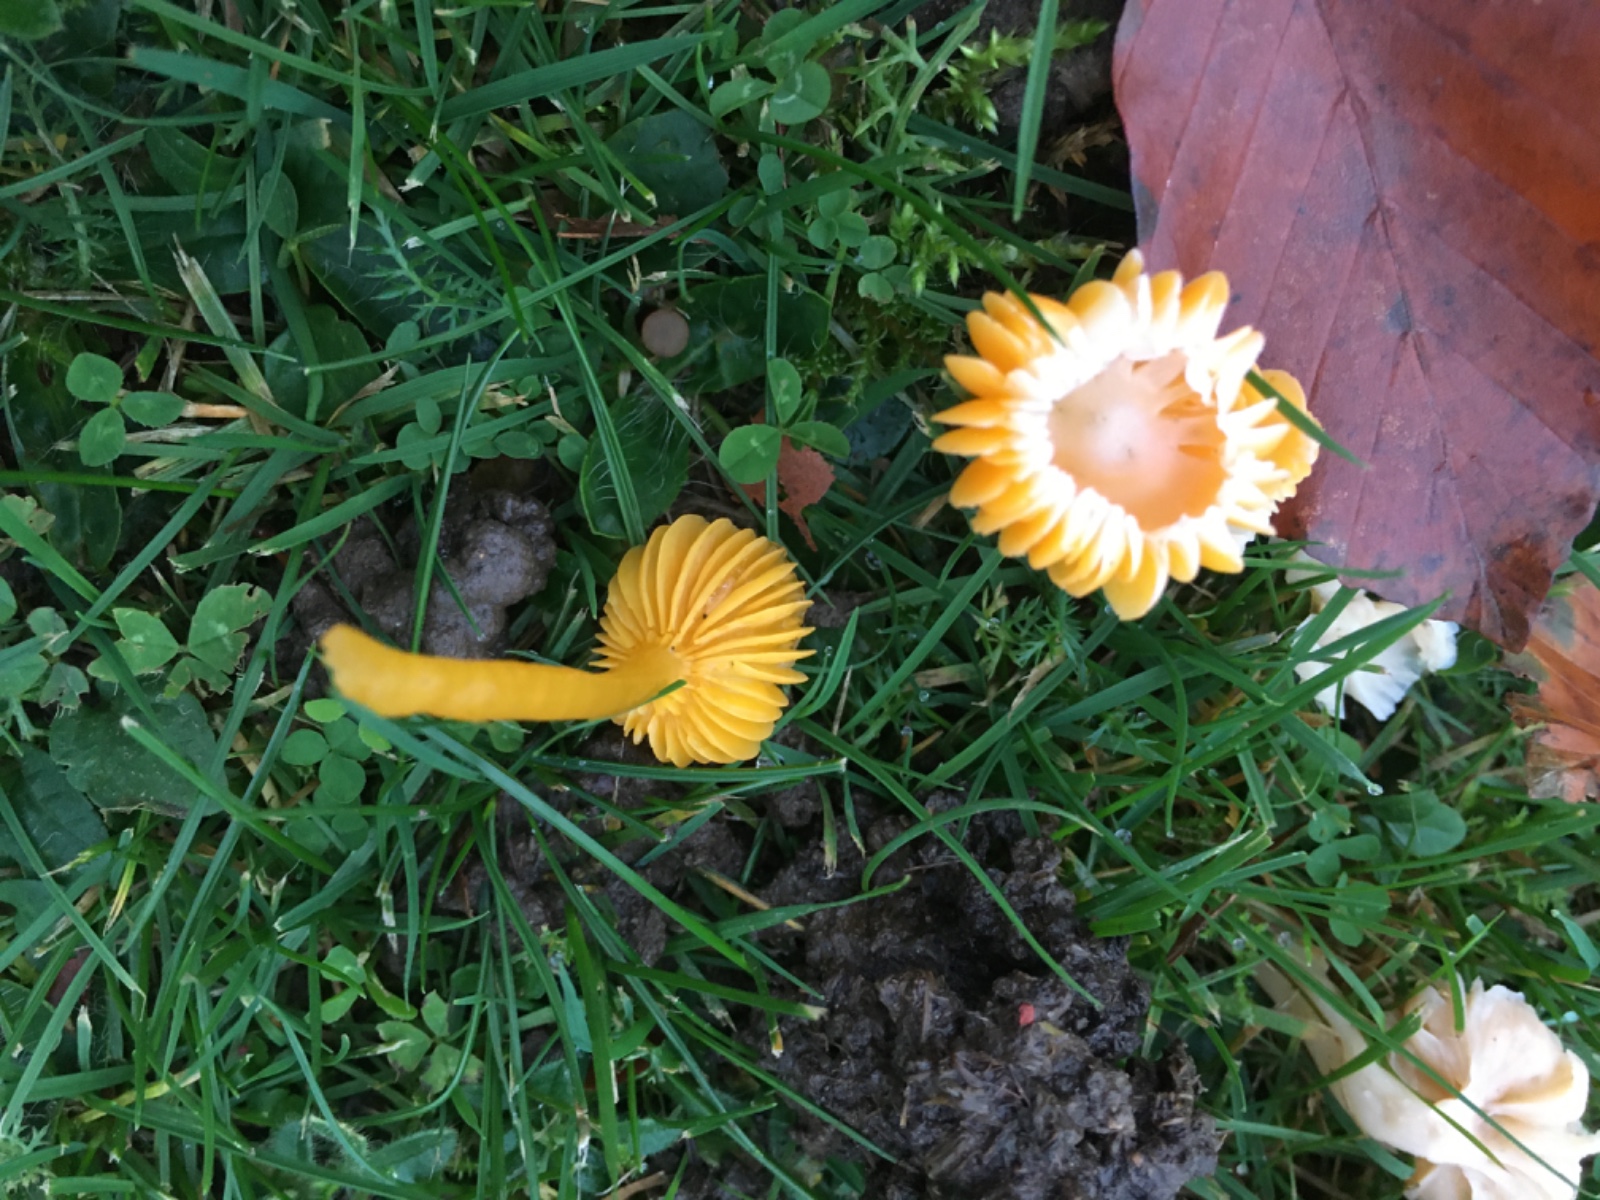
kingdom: Fungi
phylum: Basidiomycota
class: Agaricomycetes
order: Agaricales
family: Hygrophoraceae
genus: Gliophorus
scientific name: Gliophorus psittacinus
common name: papegøje-vokshat
